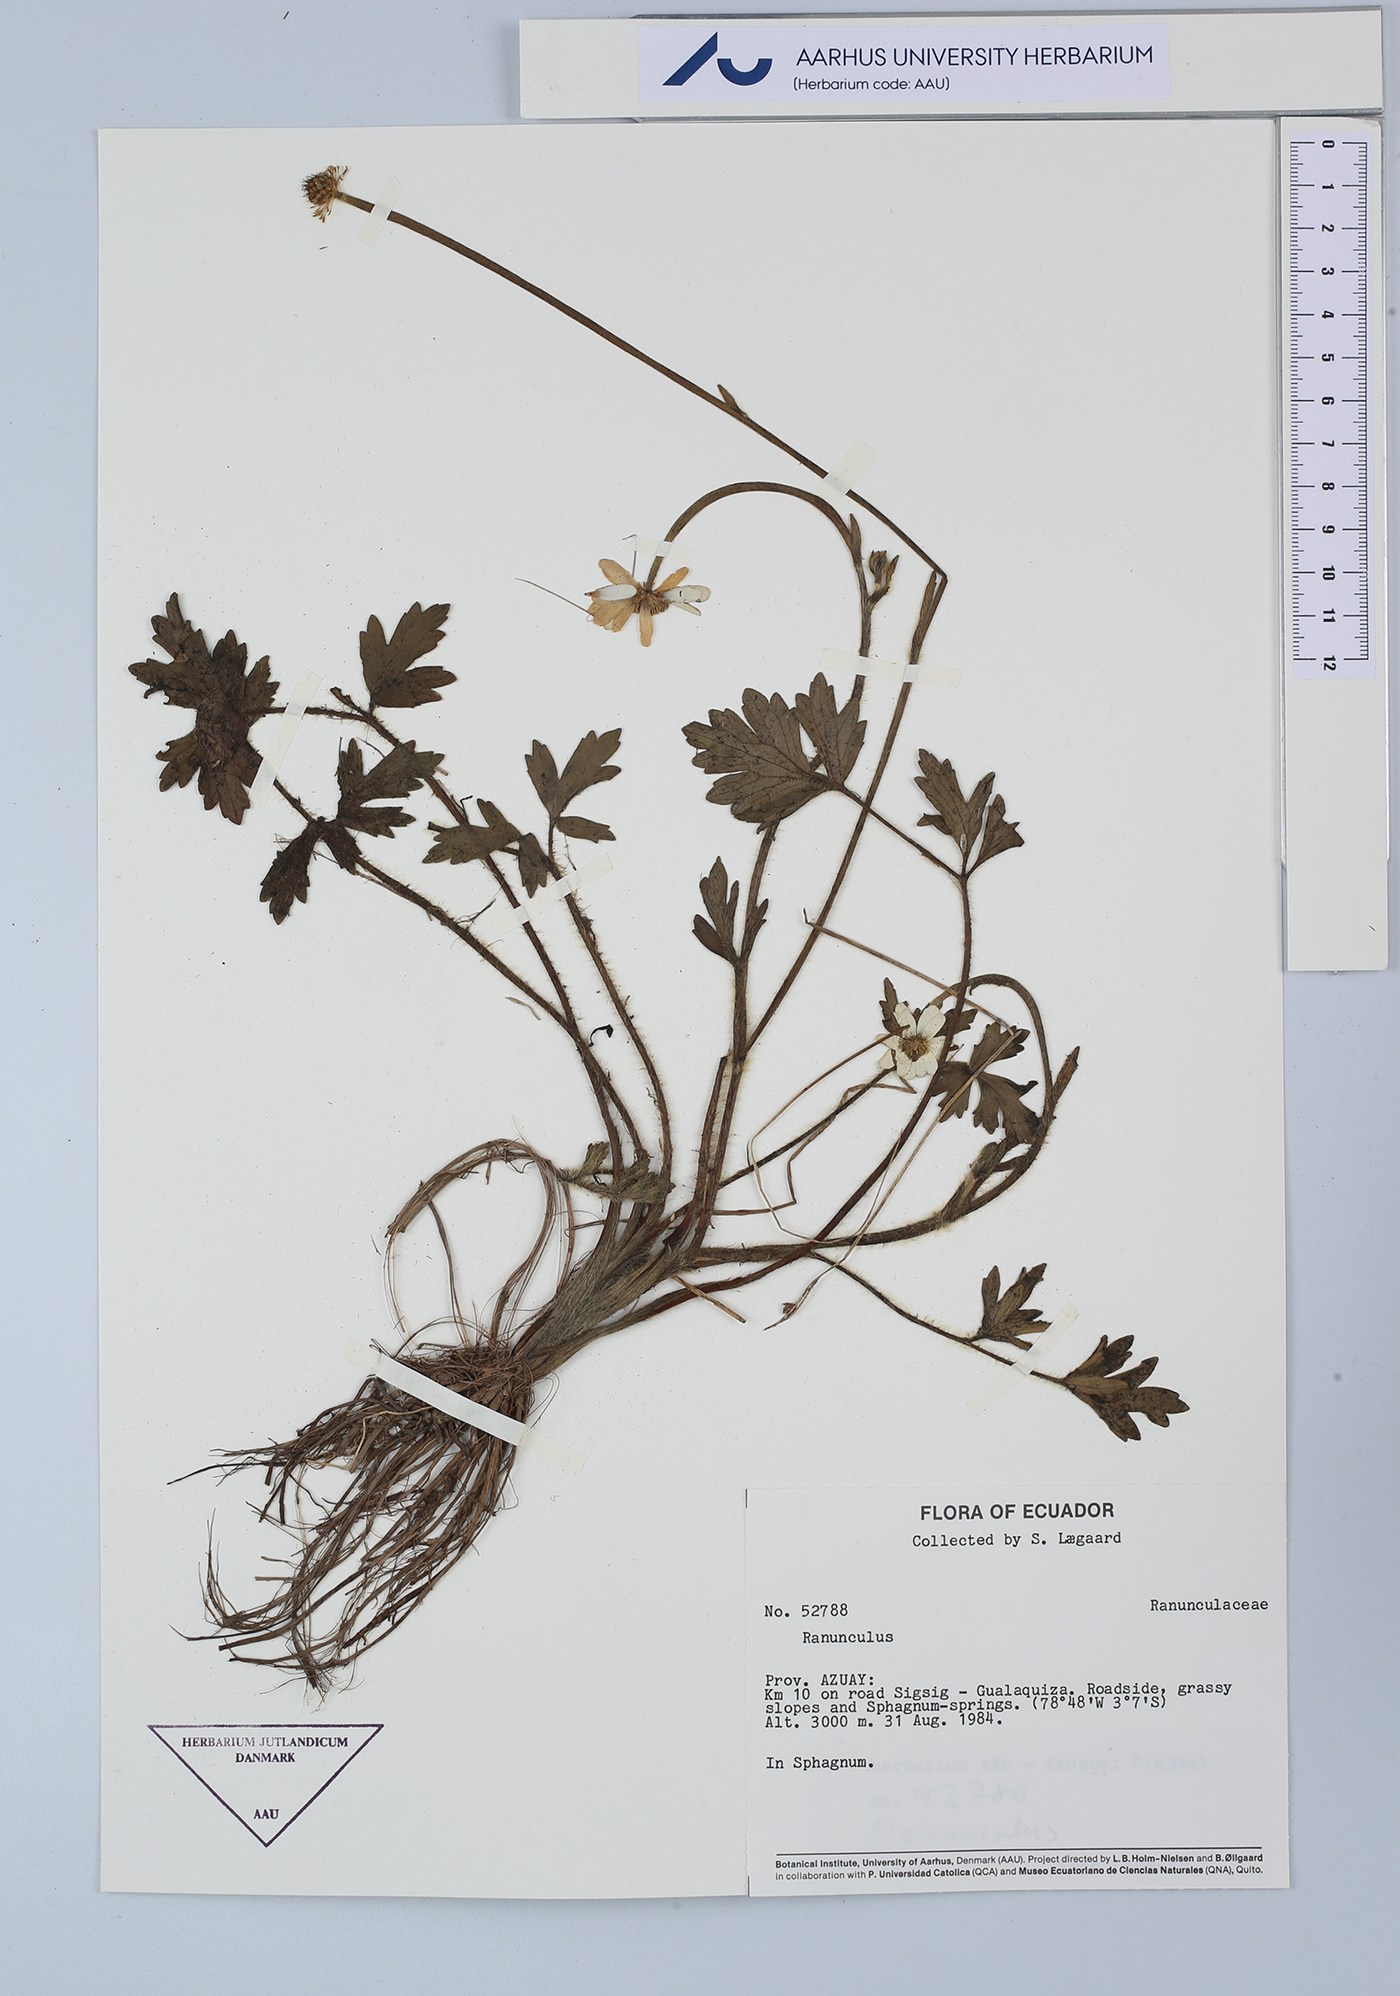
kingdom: Plantae
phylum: Tracheophyta
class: Magnoliopsida
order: Ranunculales
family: Ranunculaceae
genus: Ranunculus
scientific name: Ranunculus
